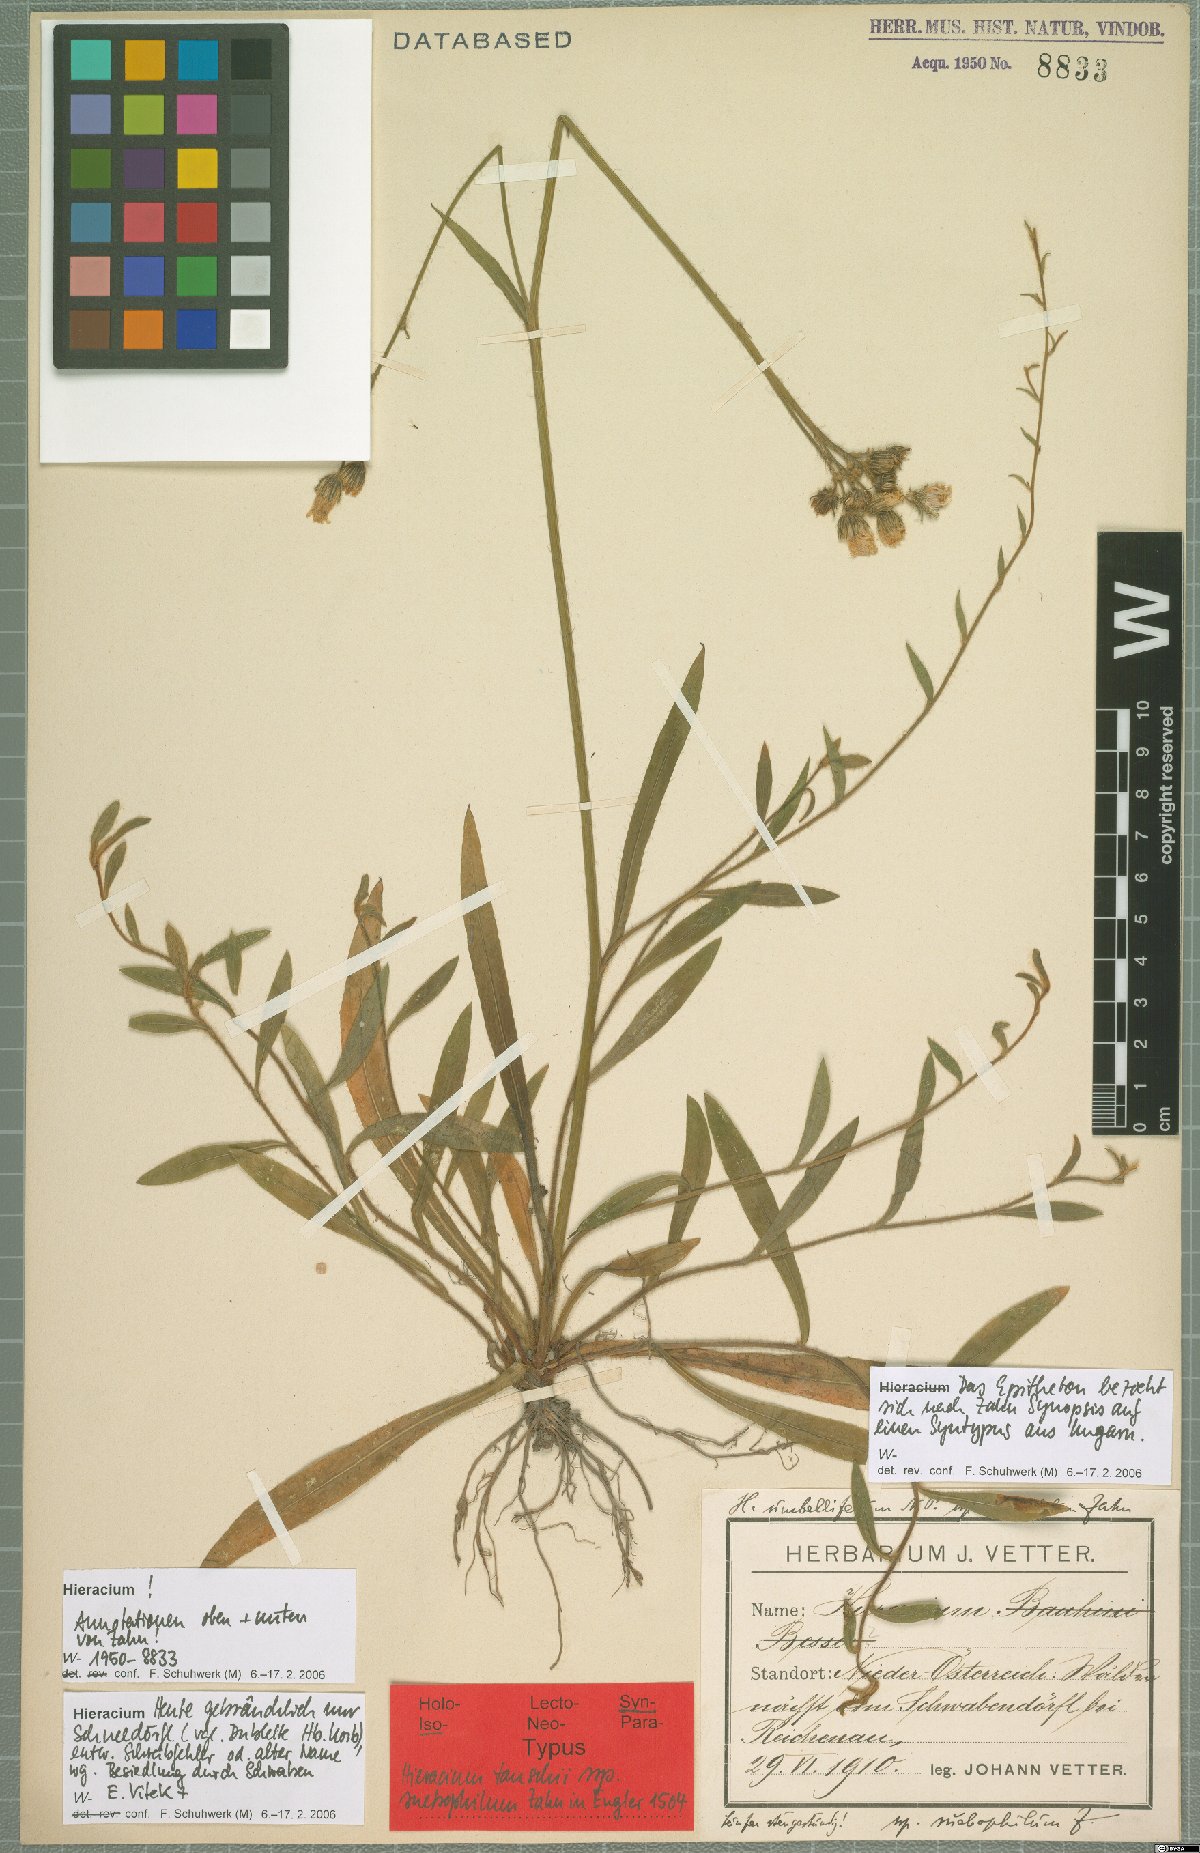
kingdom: Plantae
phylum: Tracheophyta
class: Magnoliopsida
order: Asterales
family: Asteraceae
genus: Pilosella
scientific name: Pilosella densiflora
